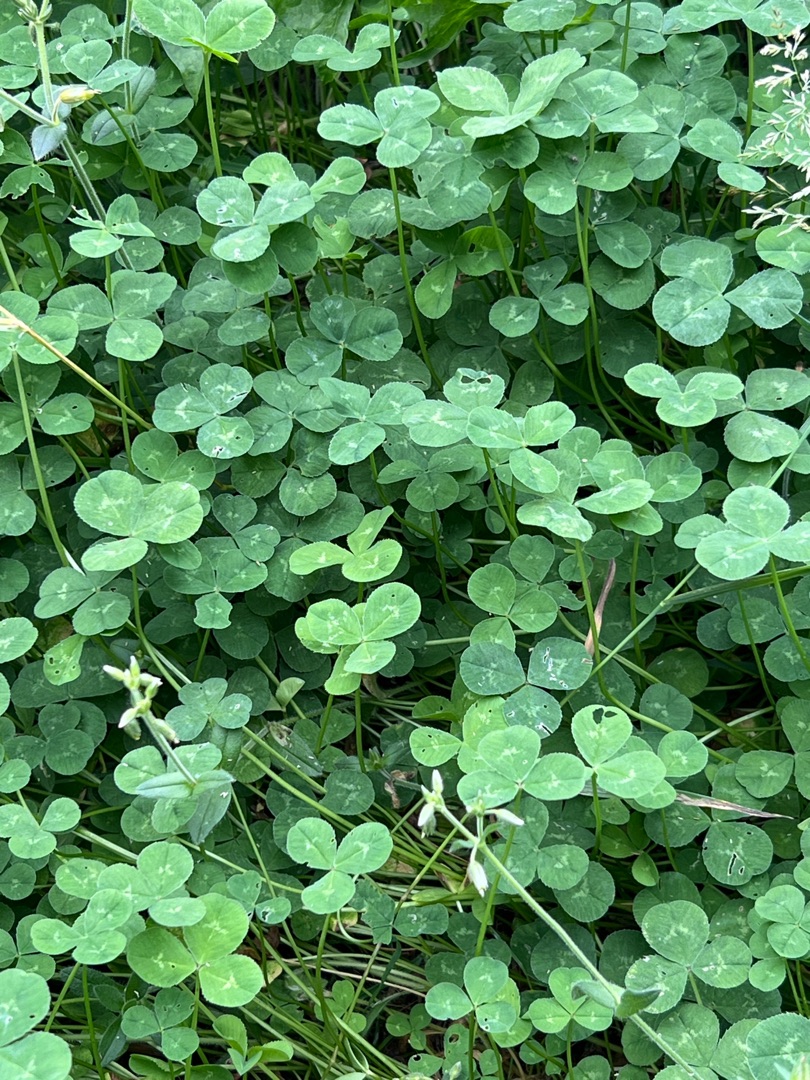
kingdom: Plantae
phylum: Tracheophyta
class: Magnoliopsida
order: Fabales
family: Fabaceae
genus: Trifolium
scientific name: Trifolium repens
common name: Hvid-kløver
